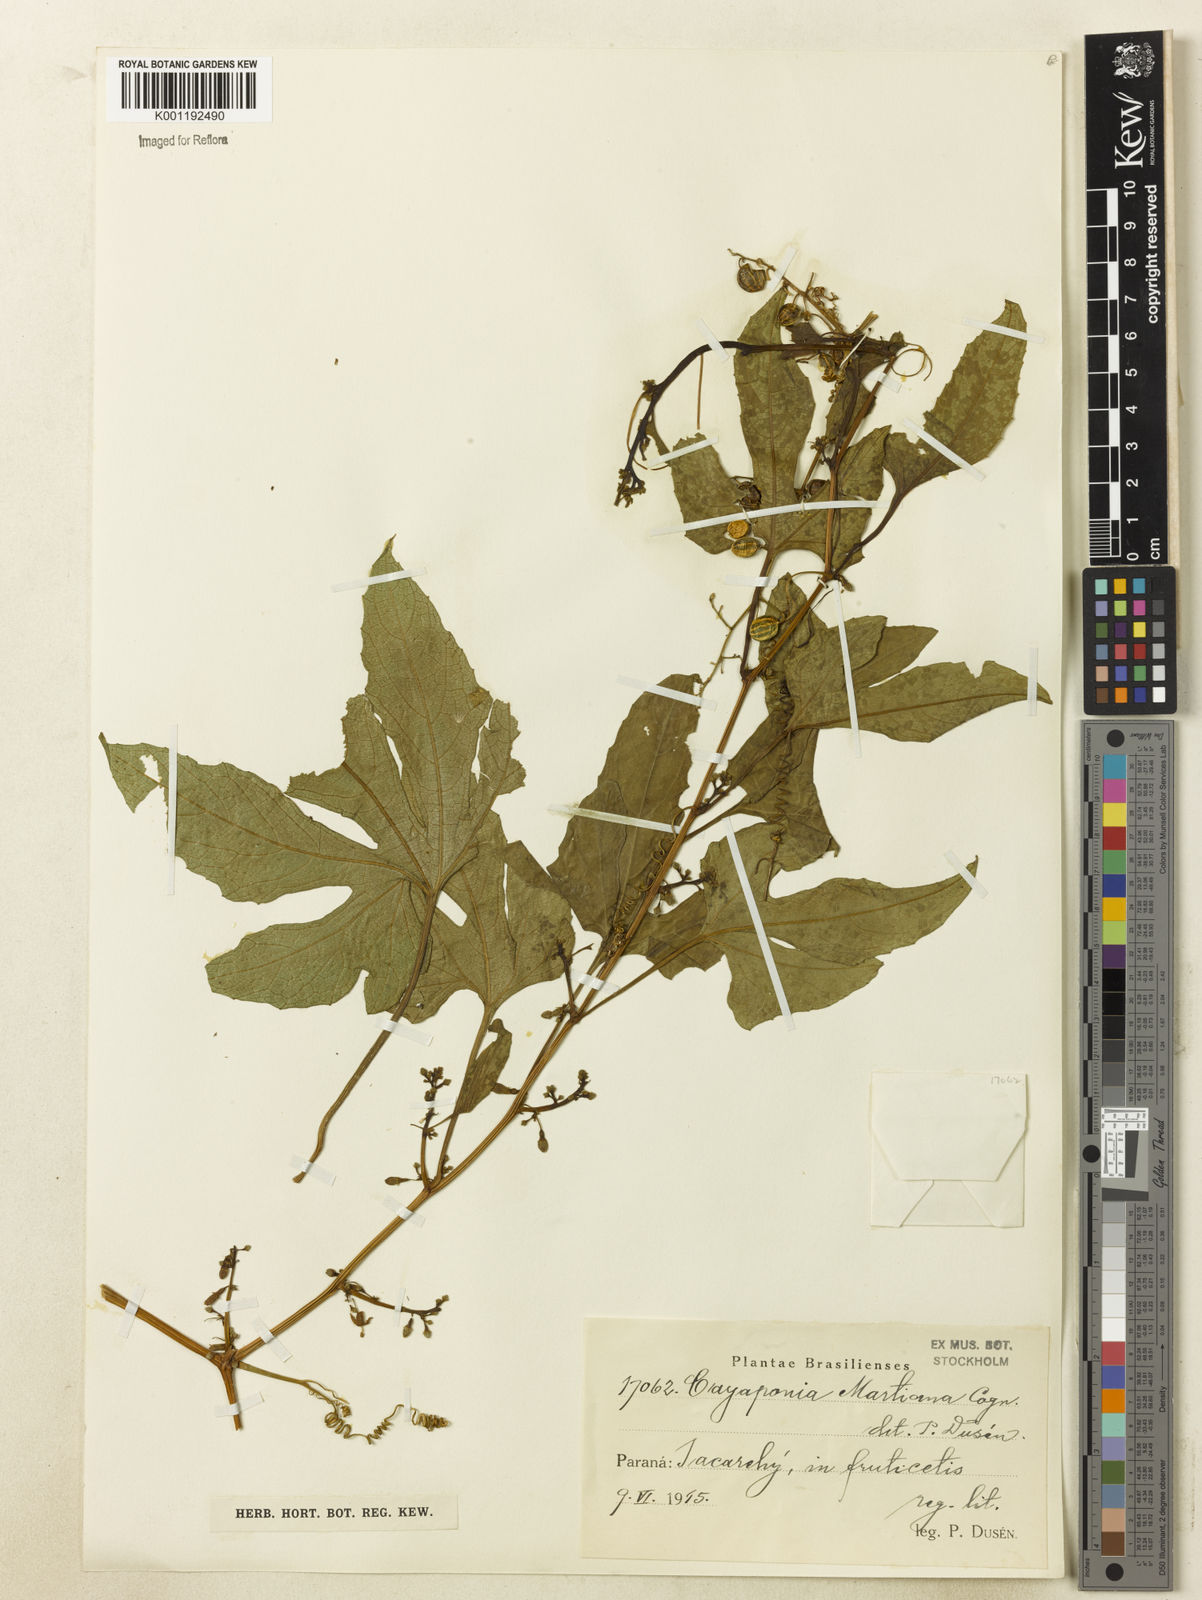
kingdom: Plantae
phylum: Tracheophyta
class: Magnoliopsida
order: Cucurbitales
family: Cucurbitaceae
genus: Cayaponia
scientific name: Cayaponia martiana
